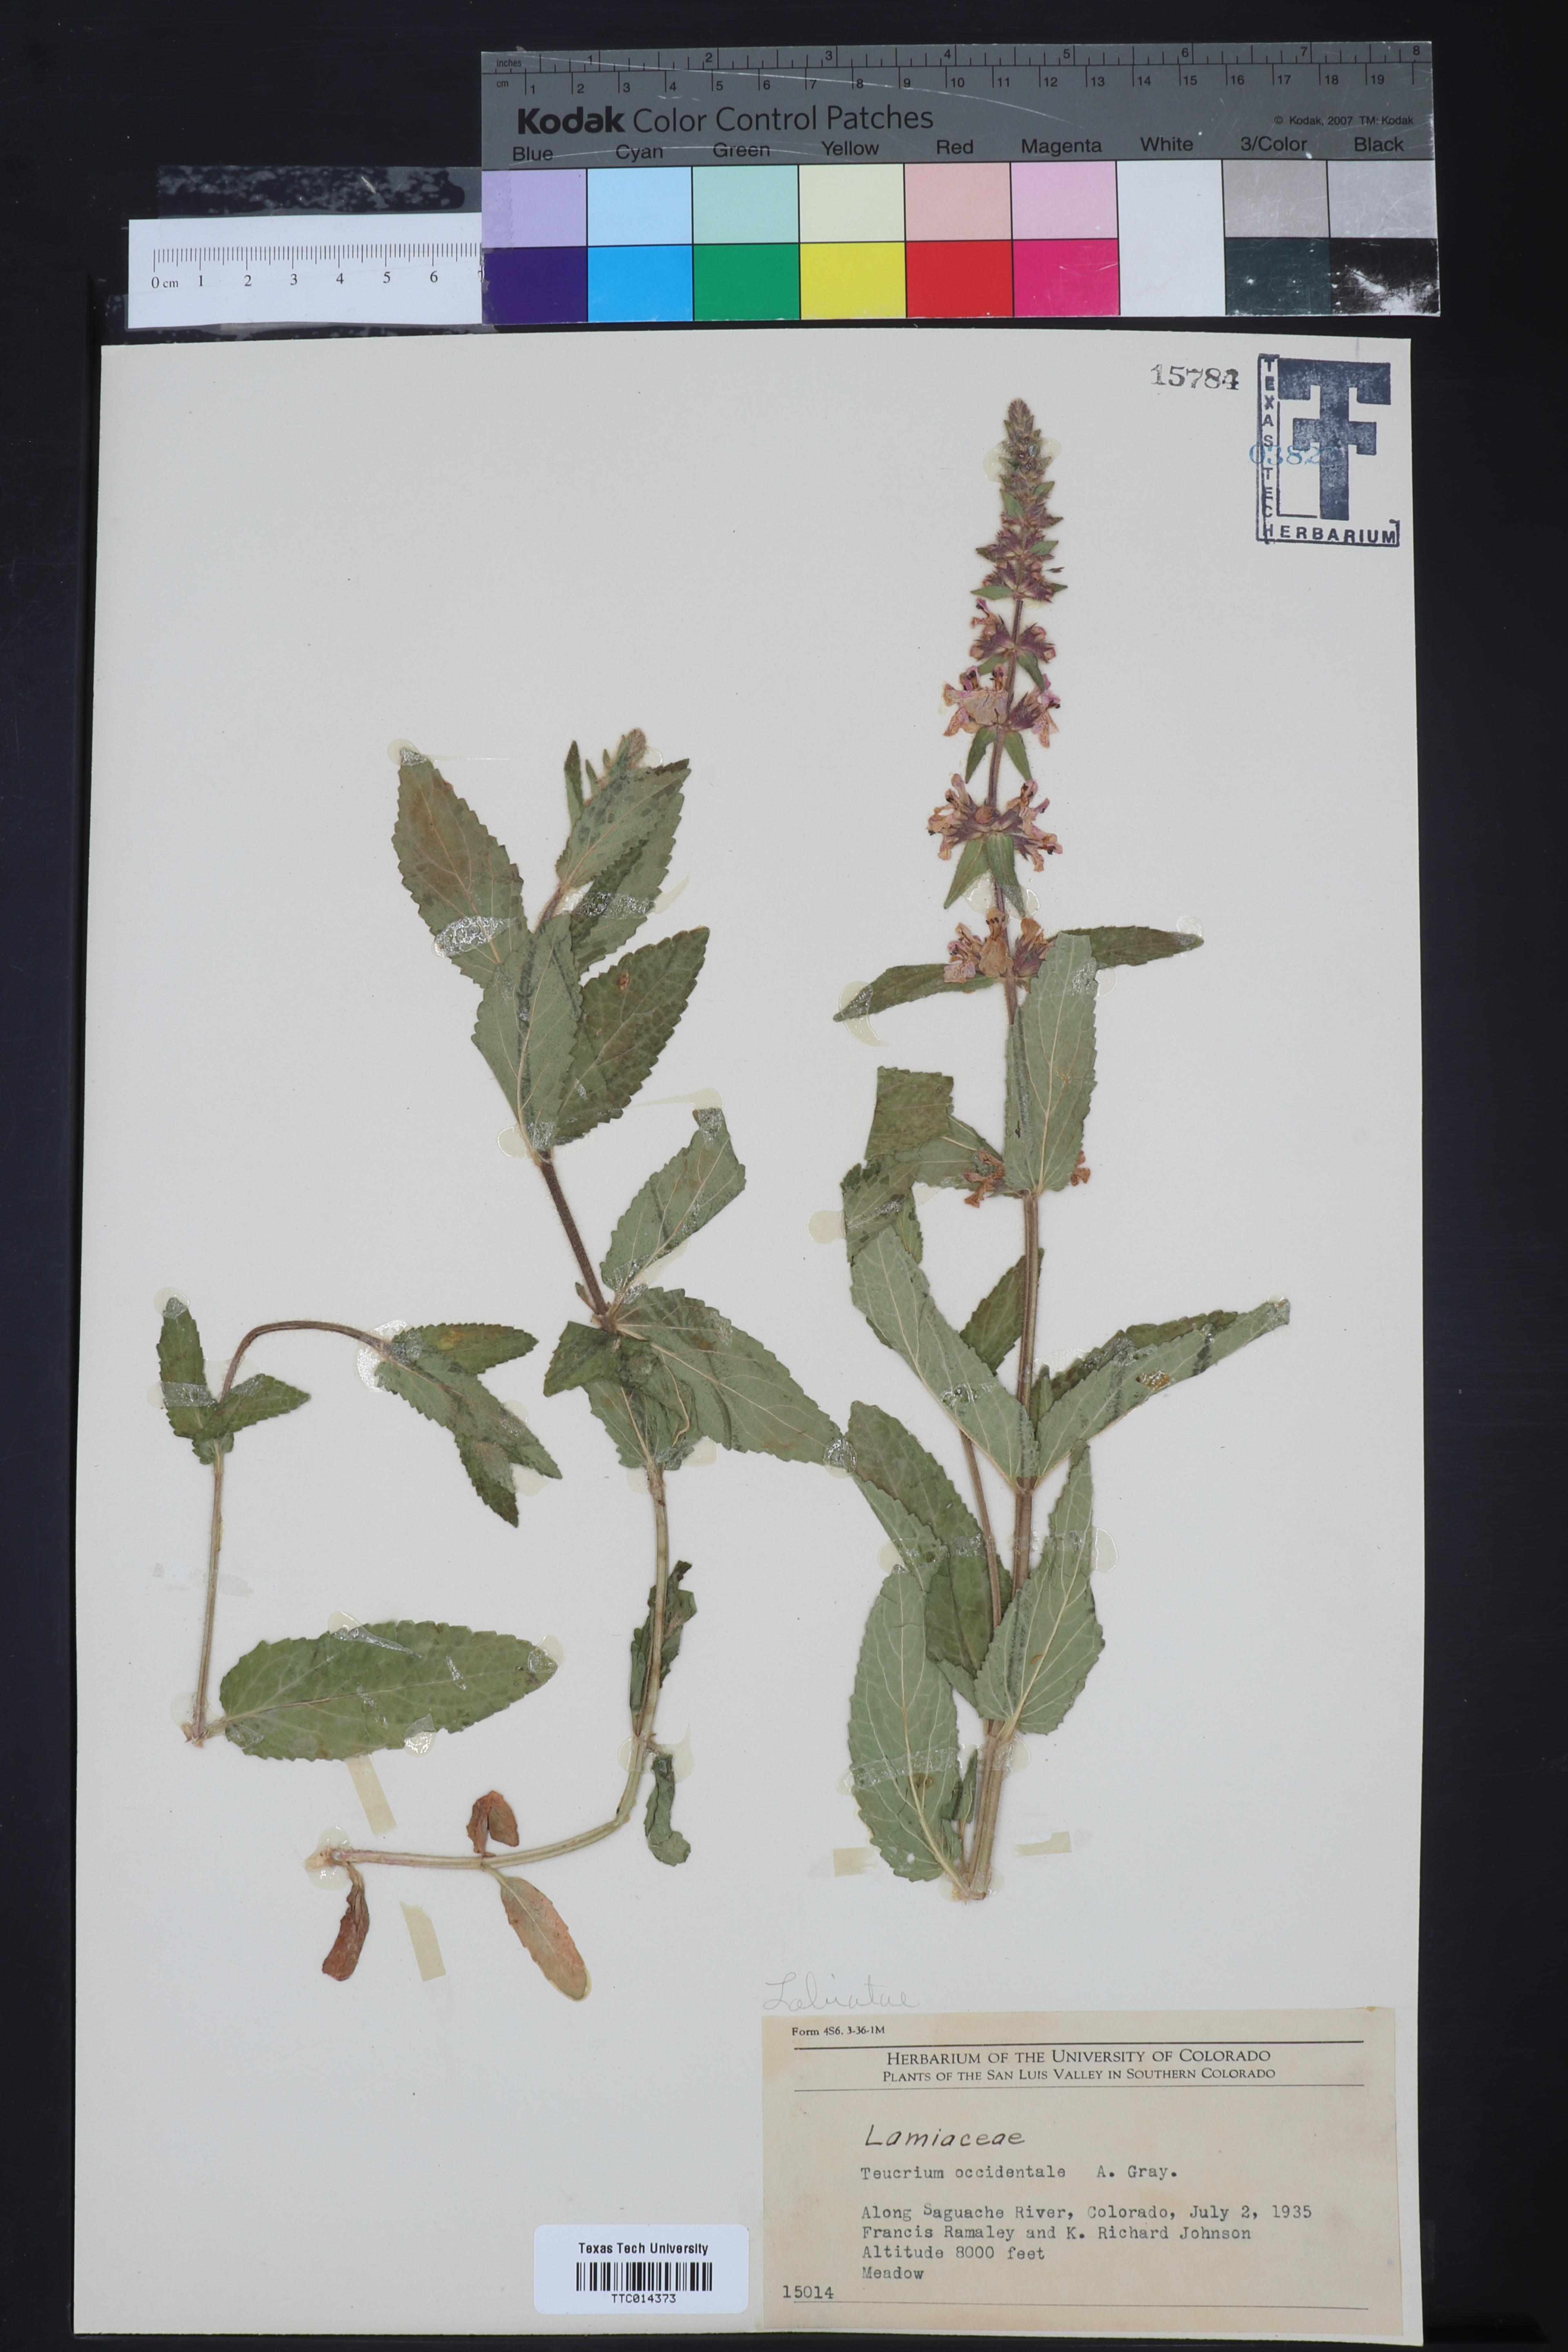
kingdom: Plantae
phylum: Tracheophyta
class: Magnoliopsida
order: Lamiales
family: Lamiaceae
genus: Teucrium
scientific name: Teucrium canadense
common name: American germander
